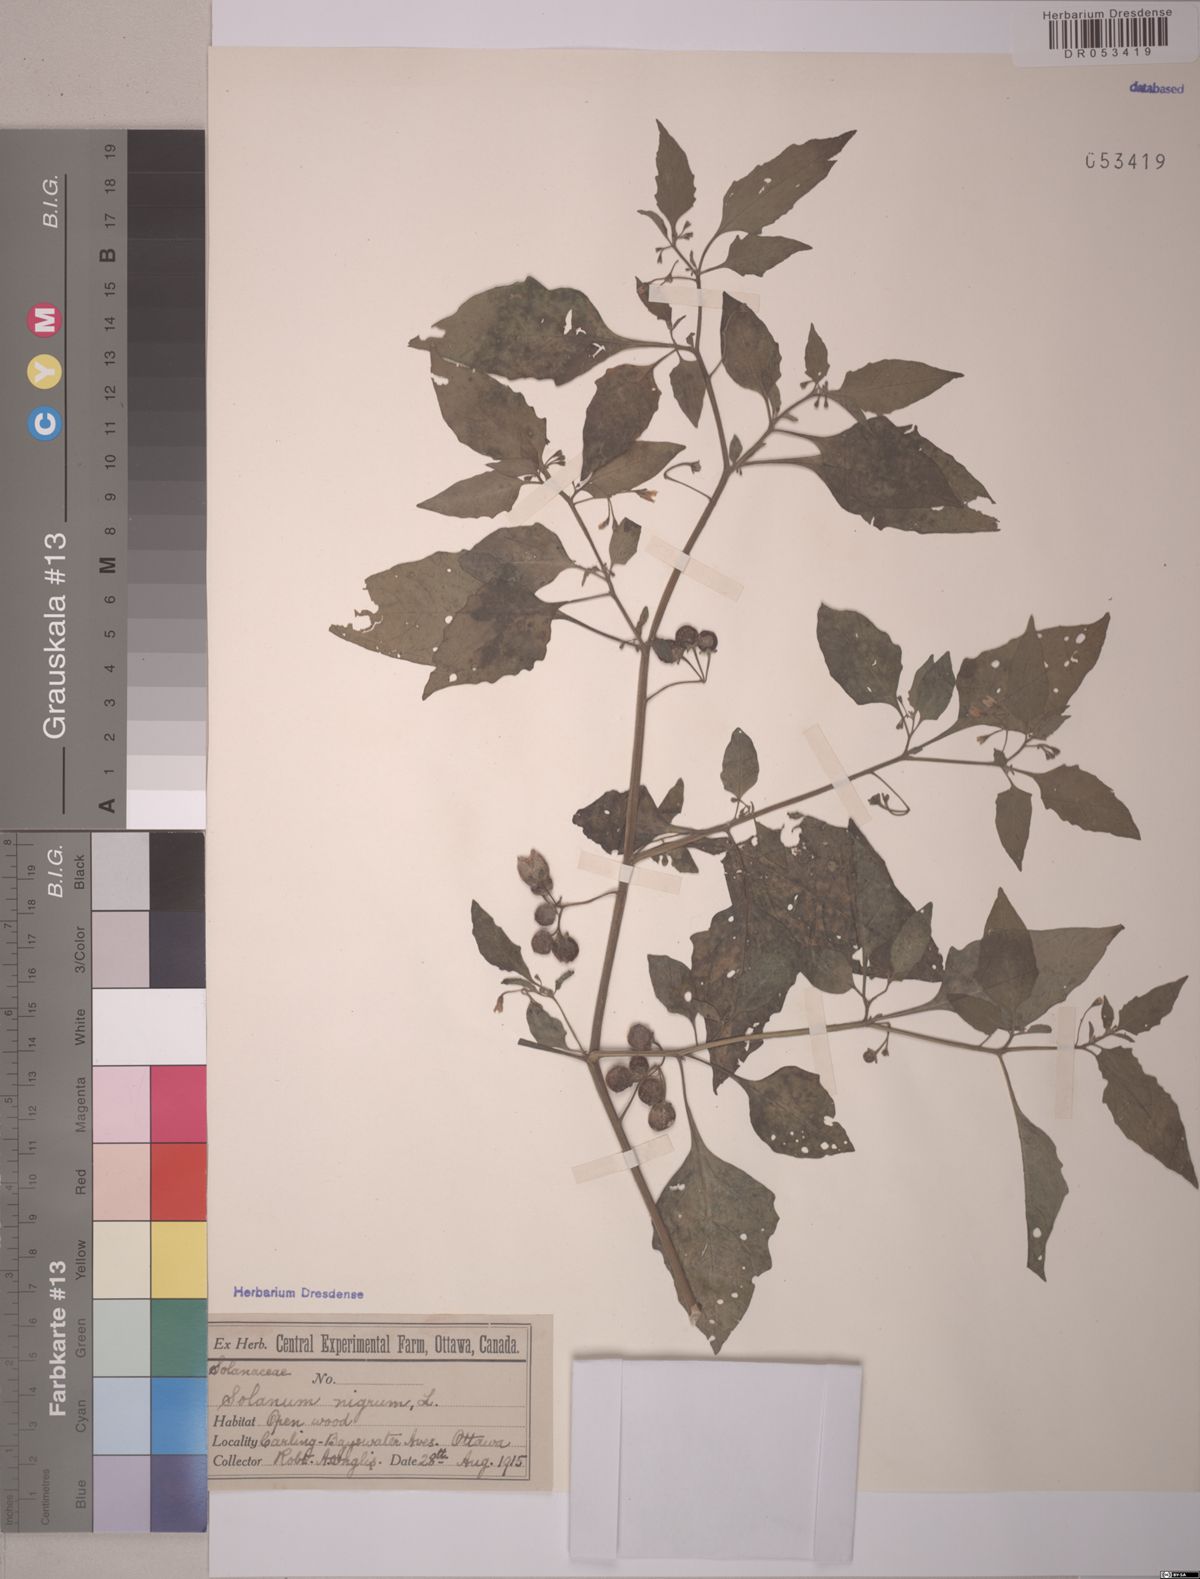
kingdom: Plantae
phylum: Tracheophyta
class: Magnoliopsida
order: Solanales
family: Solanaceae
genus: Solanum
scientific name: Solanum nigrum
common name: Black nightshade
